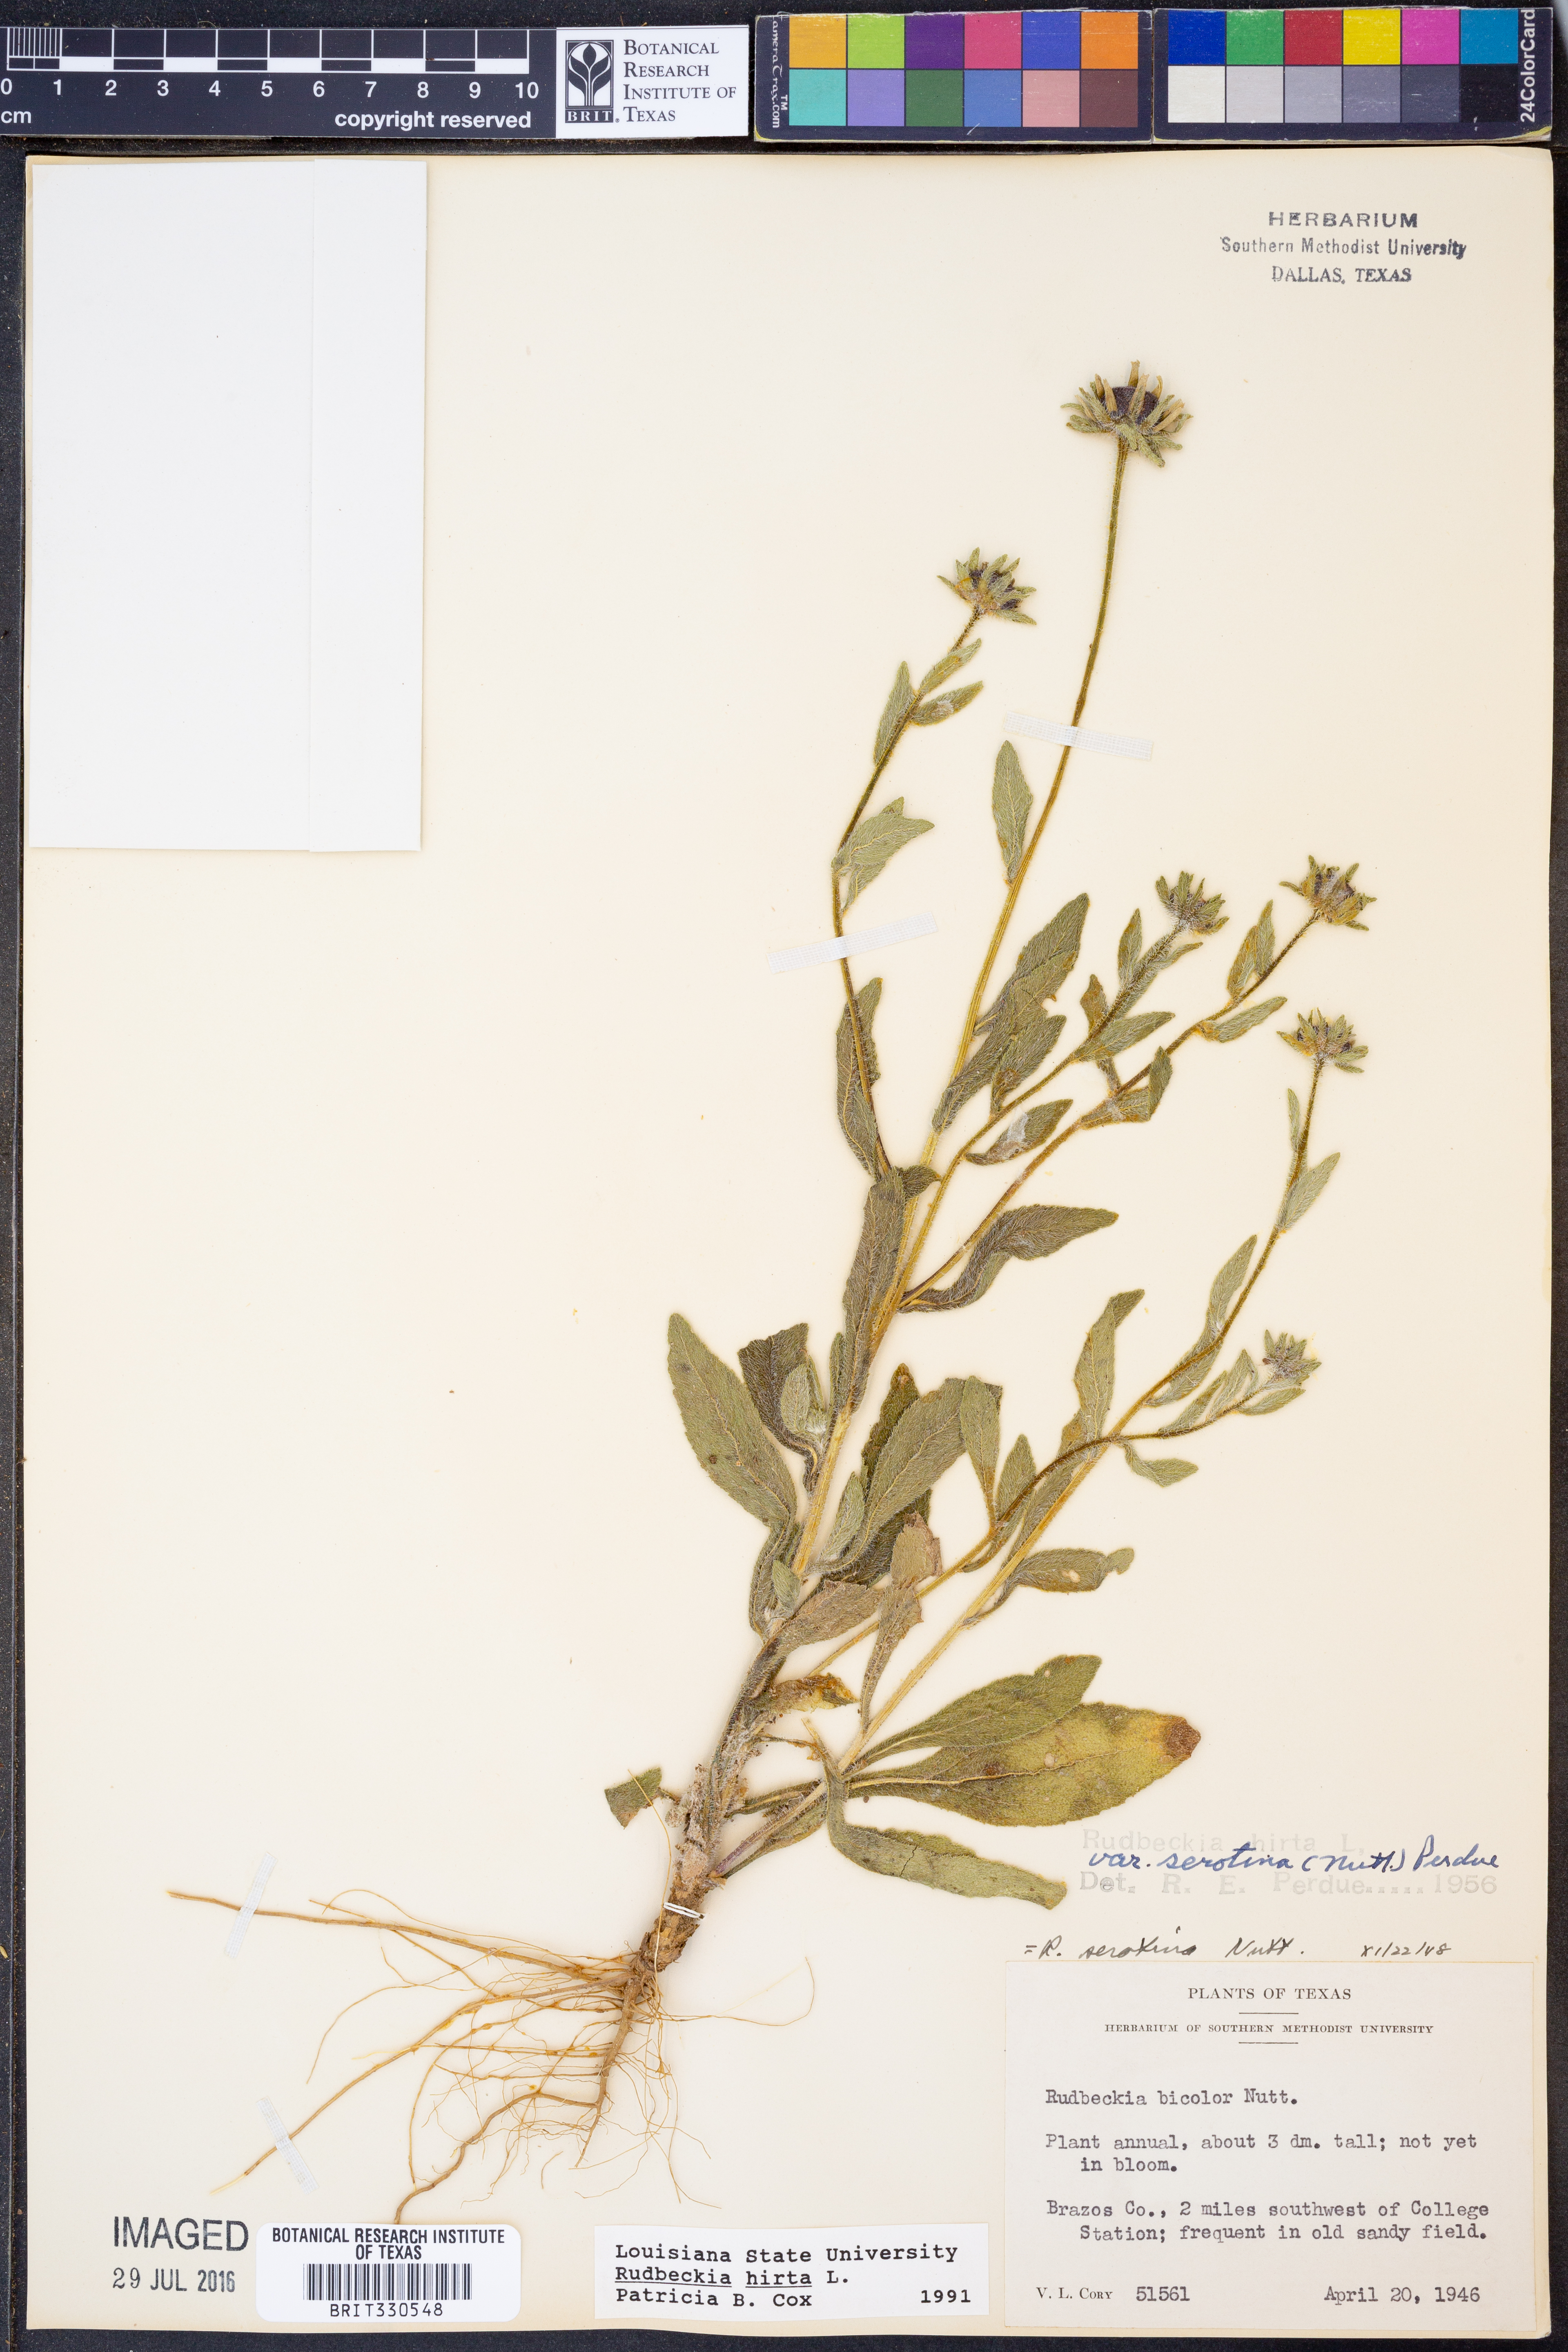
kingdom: Plantae
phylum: Tracheophyta
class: Magnoliopsida
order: Asterales
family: Asteraceae
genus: Rudbeckia
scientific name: Rudbeckia hirta
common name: Black-eyed-susan
